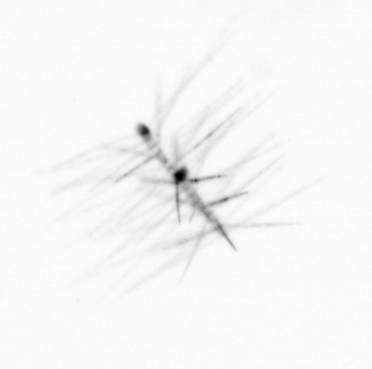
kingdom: Chromista
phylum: Ochrophyta
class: Bacillariophyceae
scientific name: Bacillariophyceae
